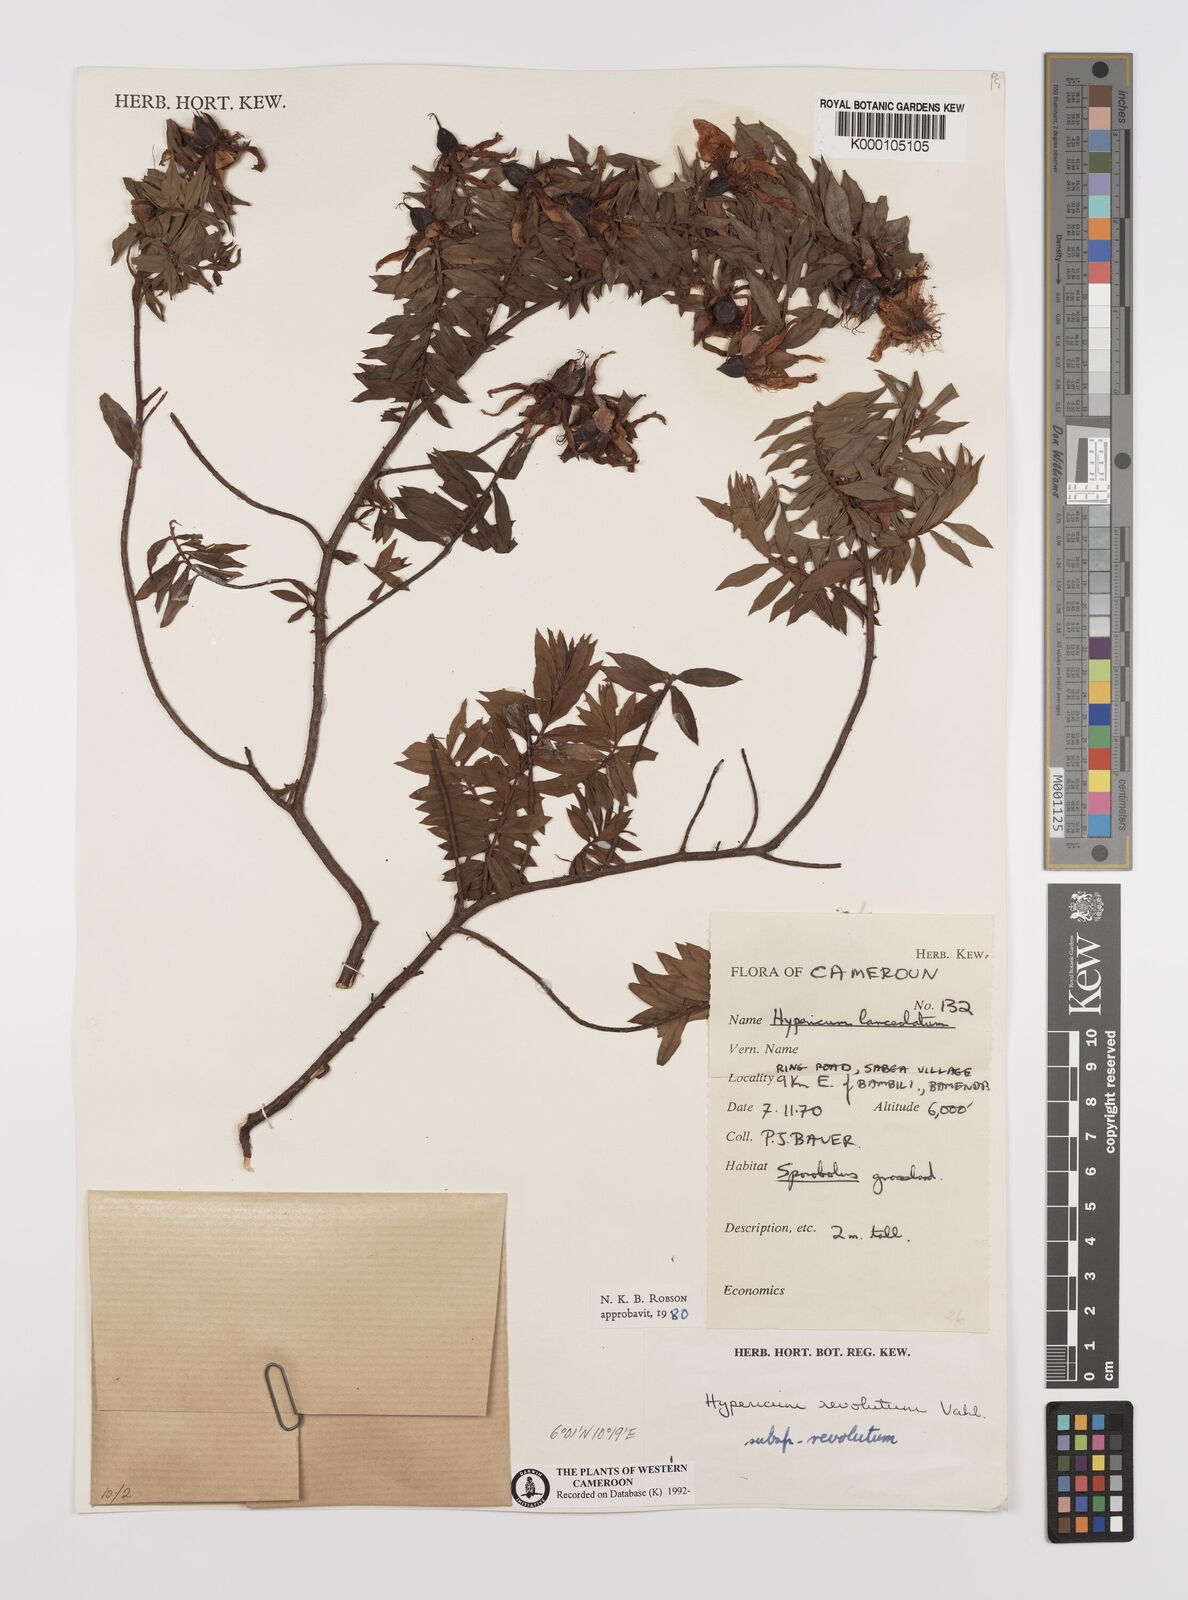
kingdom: Plantae
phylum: Tracheophyta
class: Magnoliopsida
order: Malpighiales
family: Hypericaceae
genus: Hypericum
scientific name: Hypericum revolutum
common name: Curry bush
